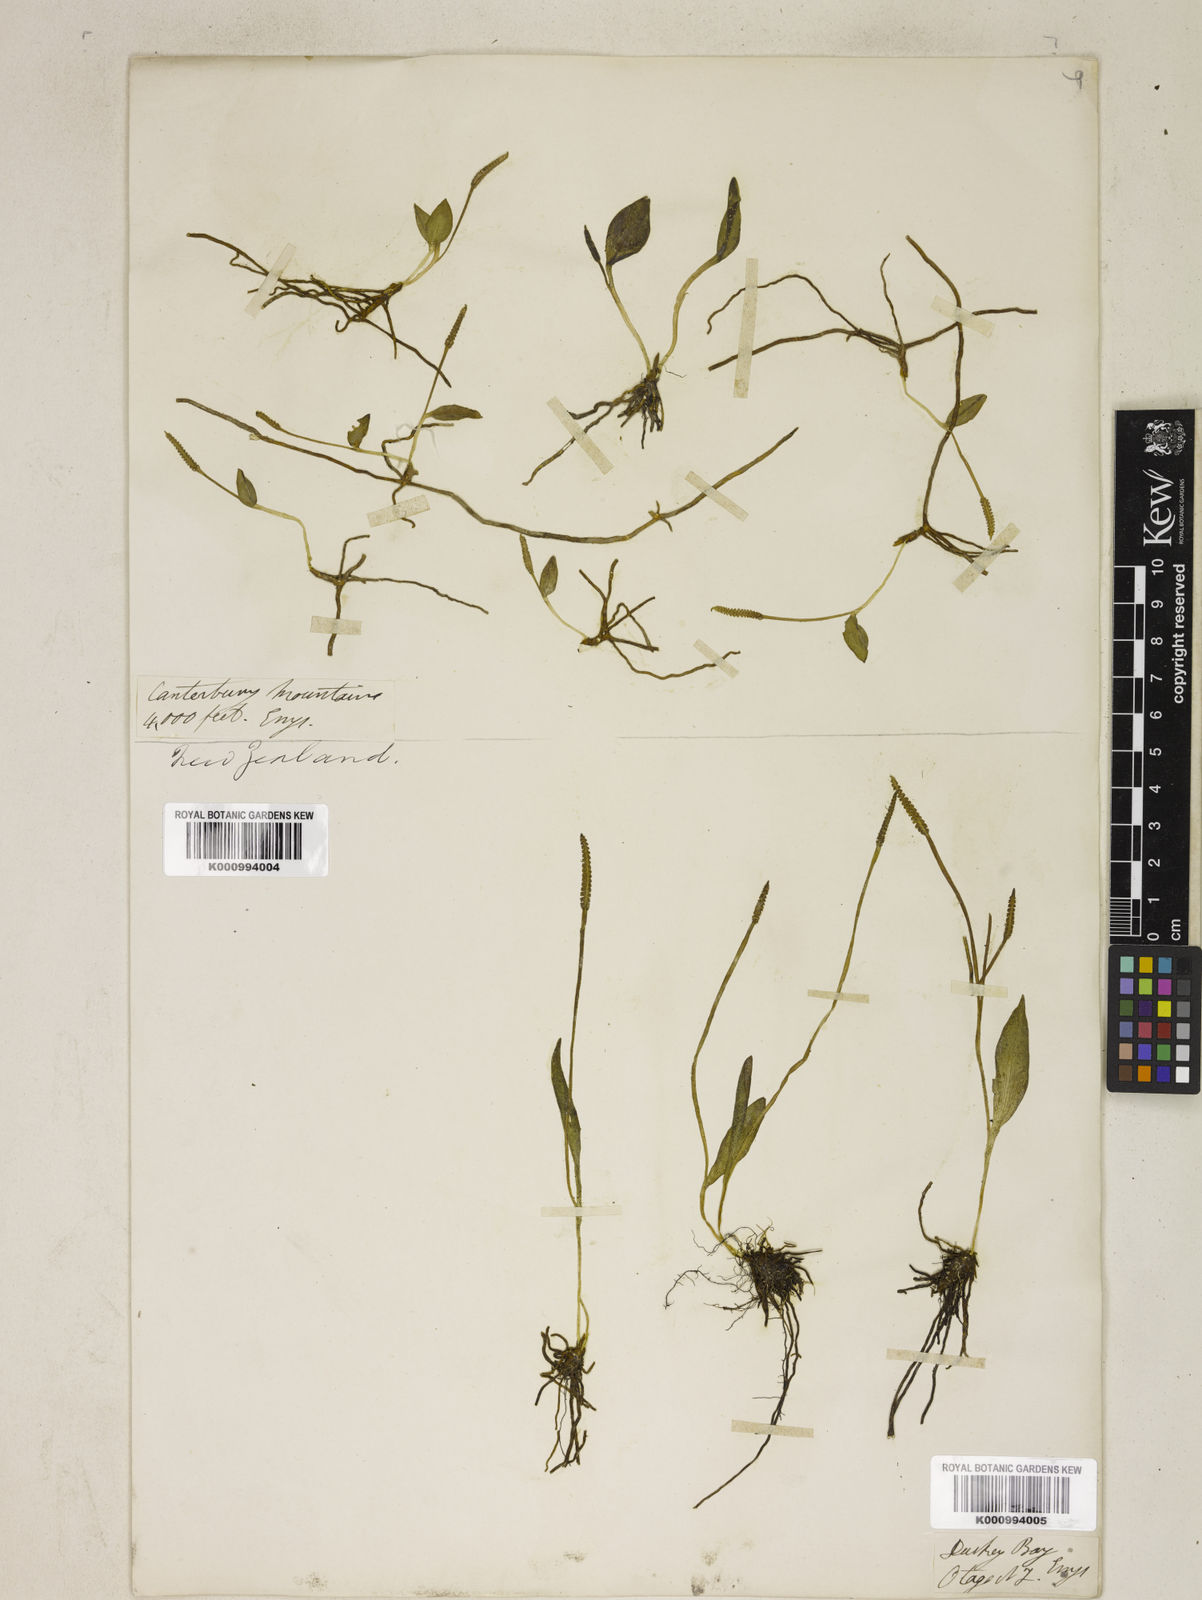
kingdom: Plantae
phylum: Tracheophyta
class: Polypodiopsida
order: Ophioglossales
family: Ophioglossaceae
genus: Ophioglossum
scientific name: Ophioglossum
